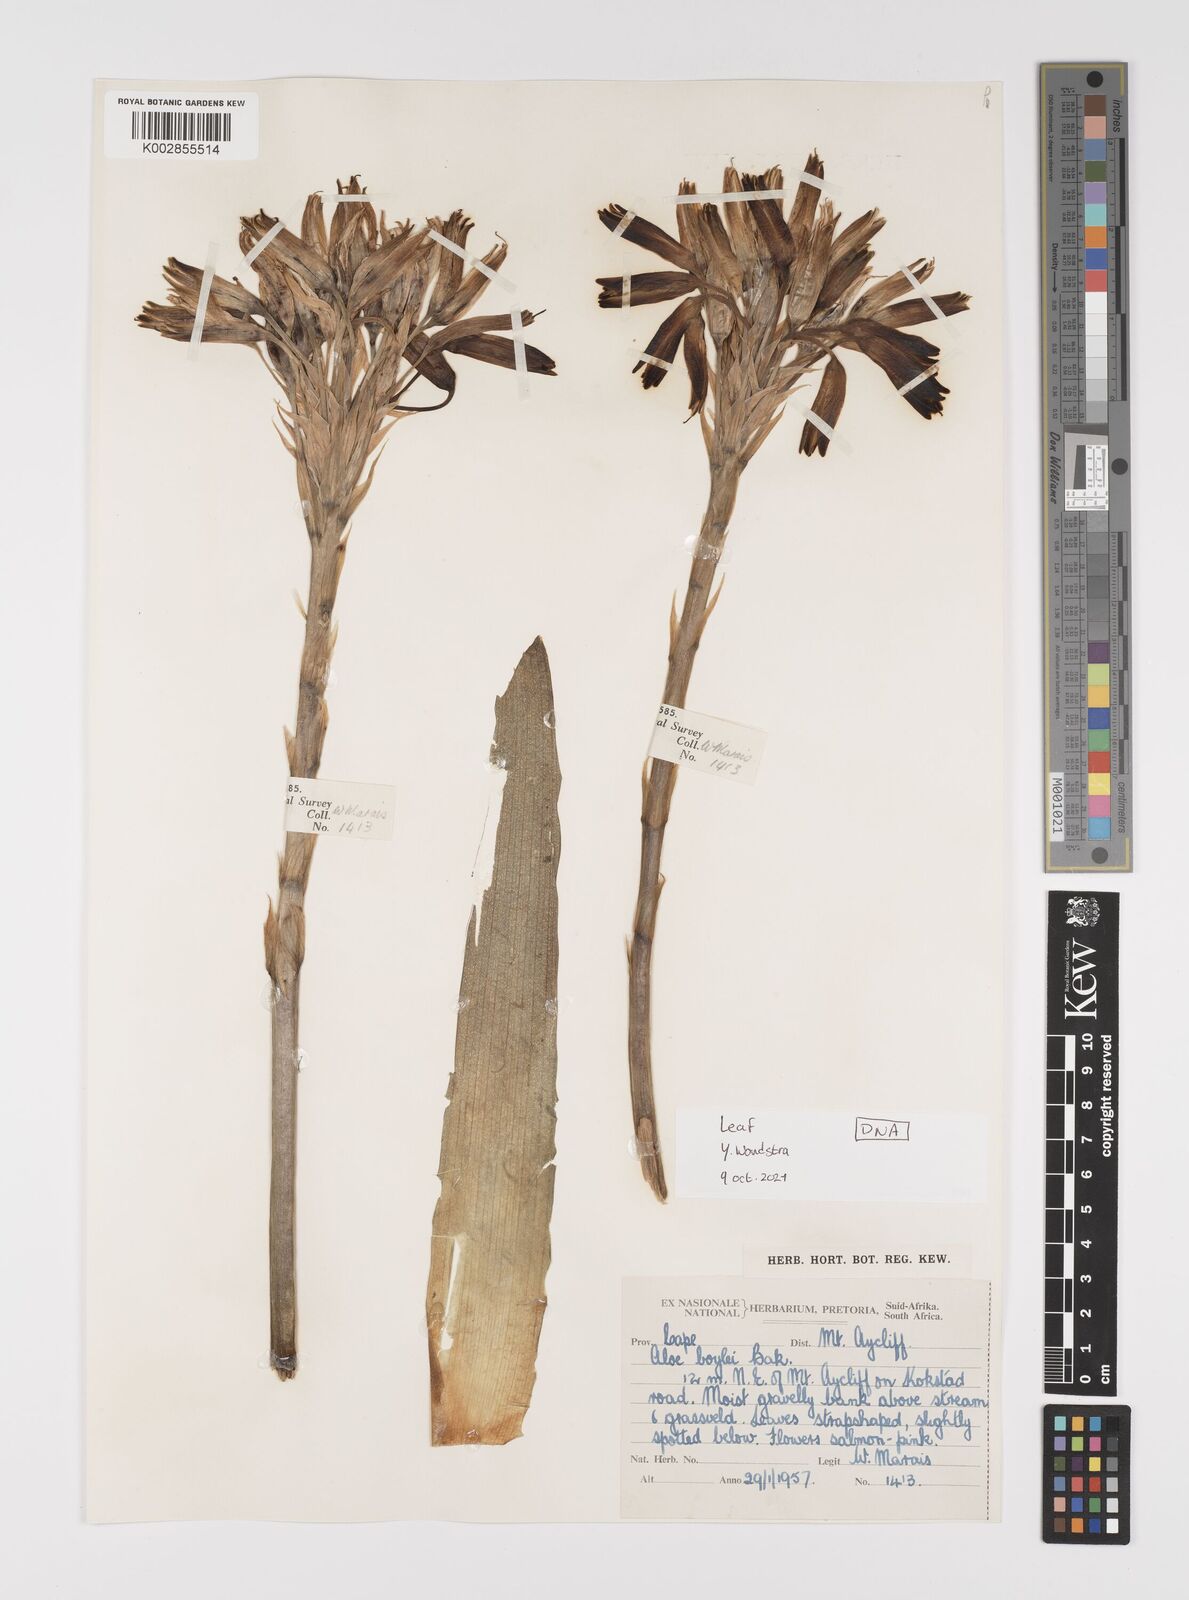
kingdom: Plantae
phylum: Tracheophyta
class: Liliopsida
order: Asparagales
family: Asphodelaceae
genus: Aloe
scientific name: Aloe boylei
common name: Broad-leaved grass aloe
